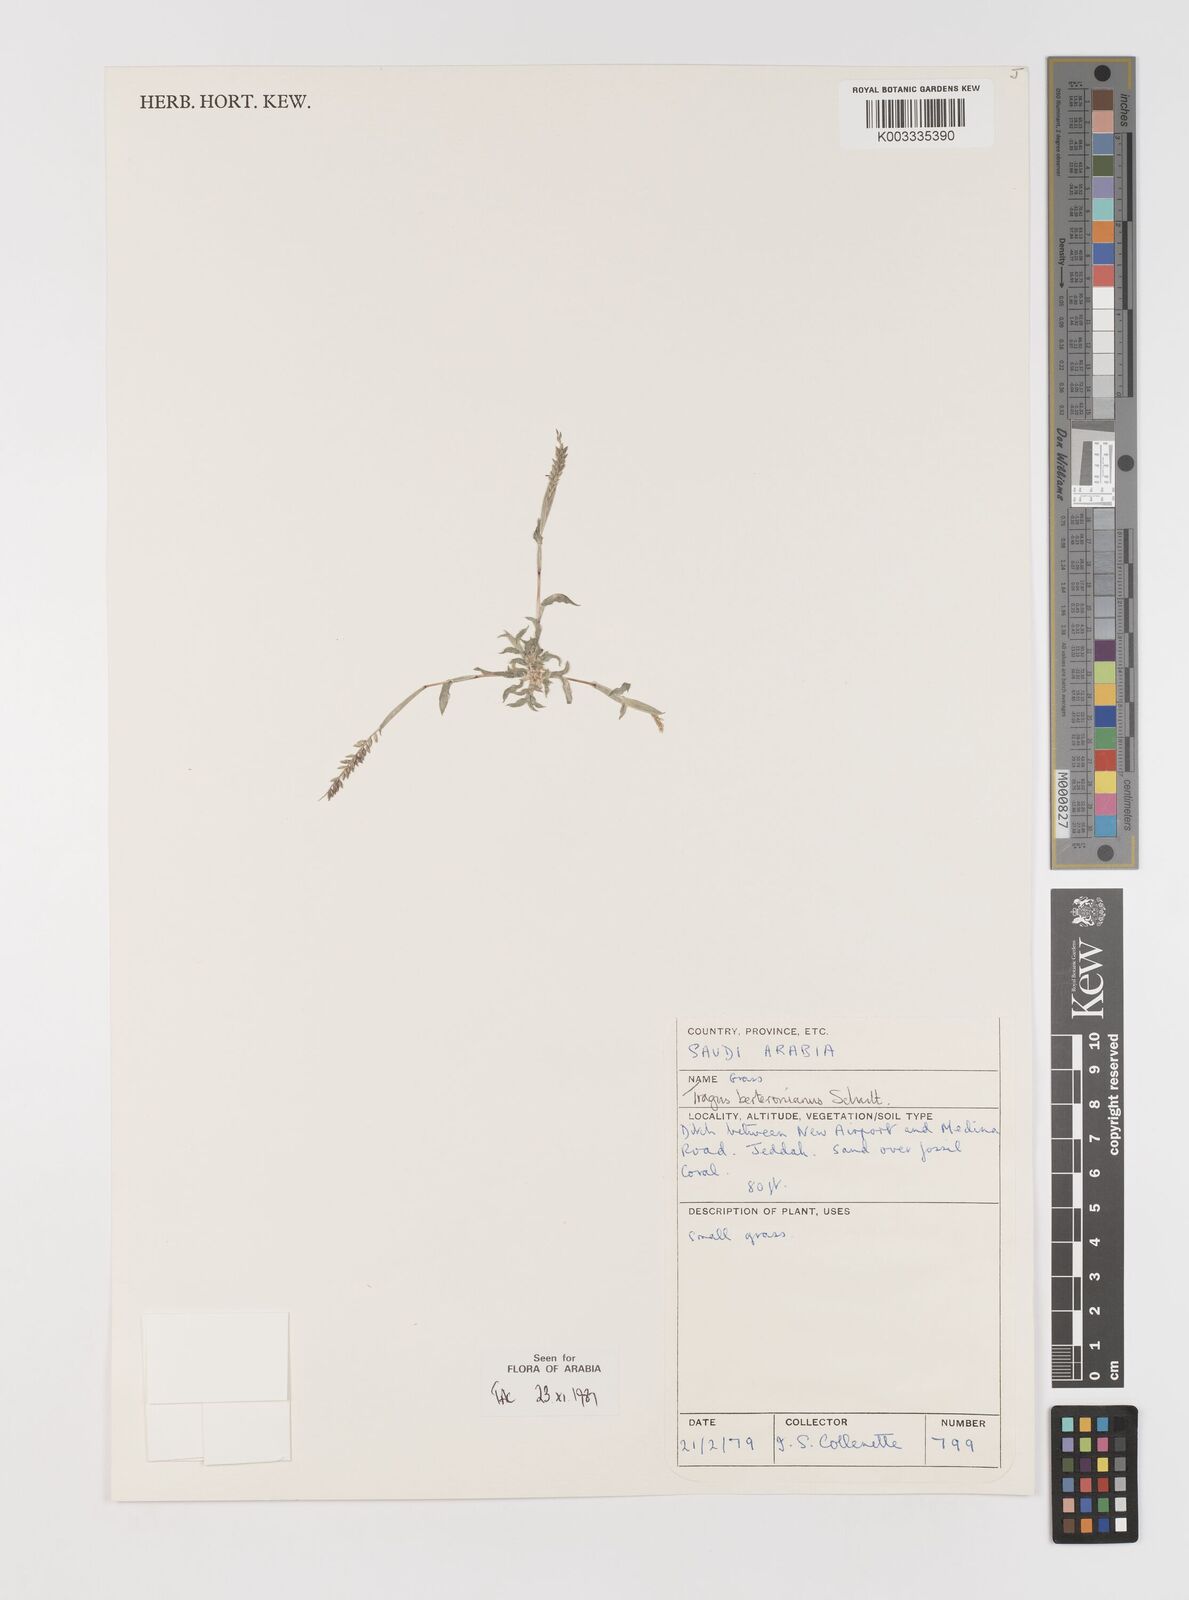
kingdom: Plantae
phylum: Tracheophyta
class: Liliopsida
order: Poales
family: Poaceae
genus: Tragus
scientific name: Tragus berteronianus
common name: African bur-grass
